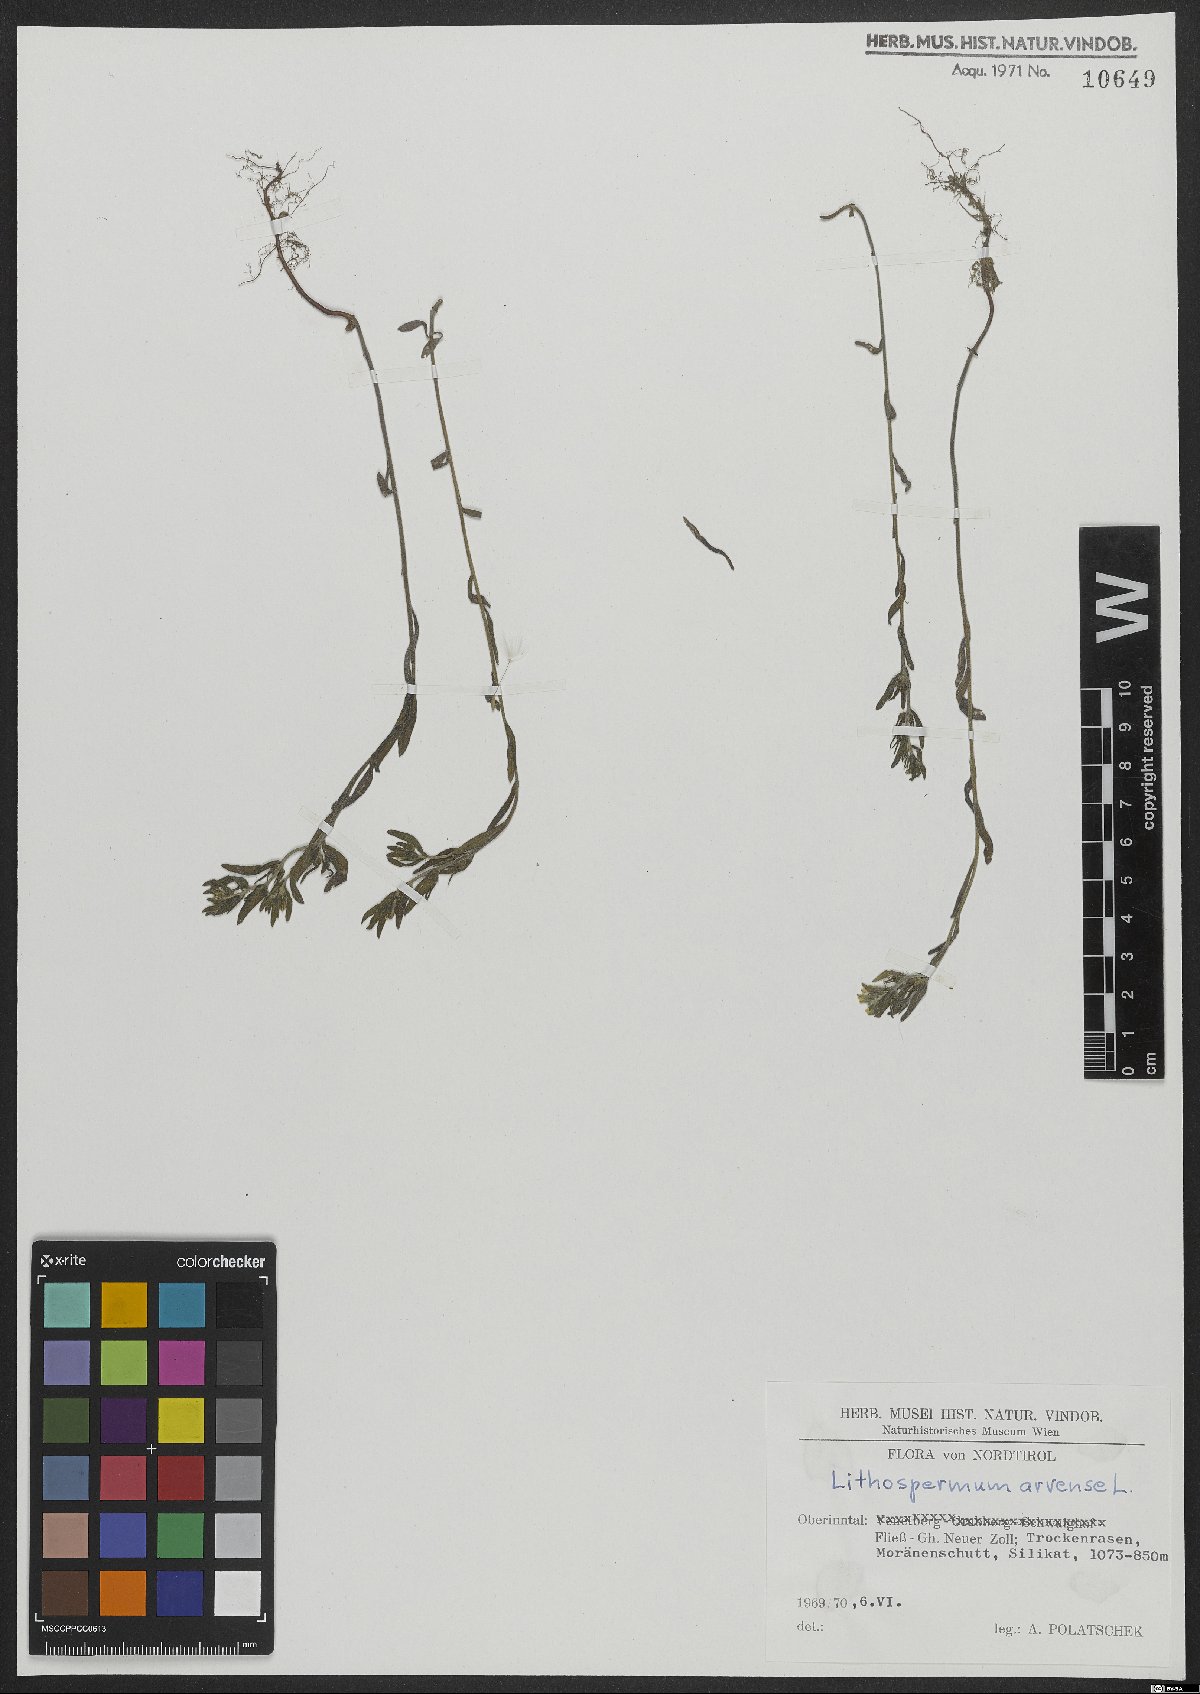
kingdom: Plantae
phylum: Tracheophyta
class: Magnoliopsida
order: Boraginales
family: Boraginaceae
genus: Buglossoides
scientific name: Buglossoides arvensis
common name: Corn gromwell
